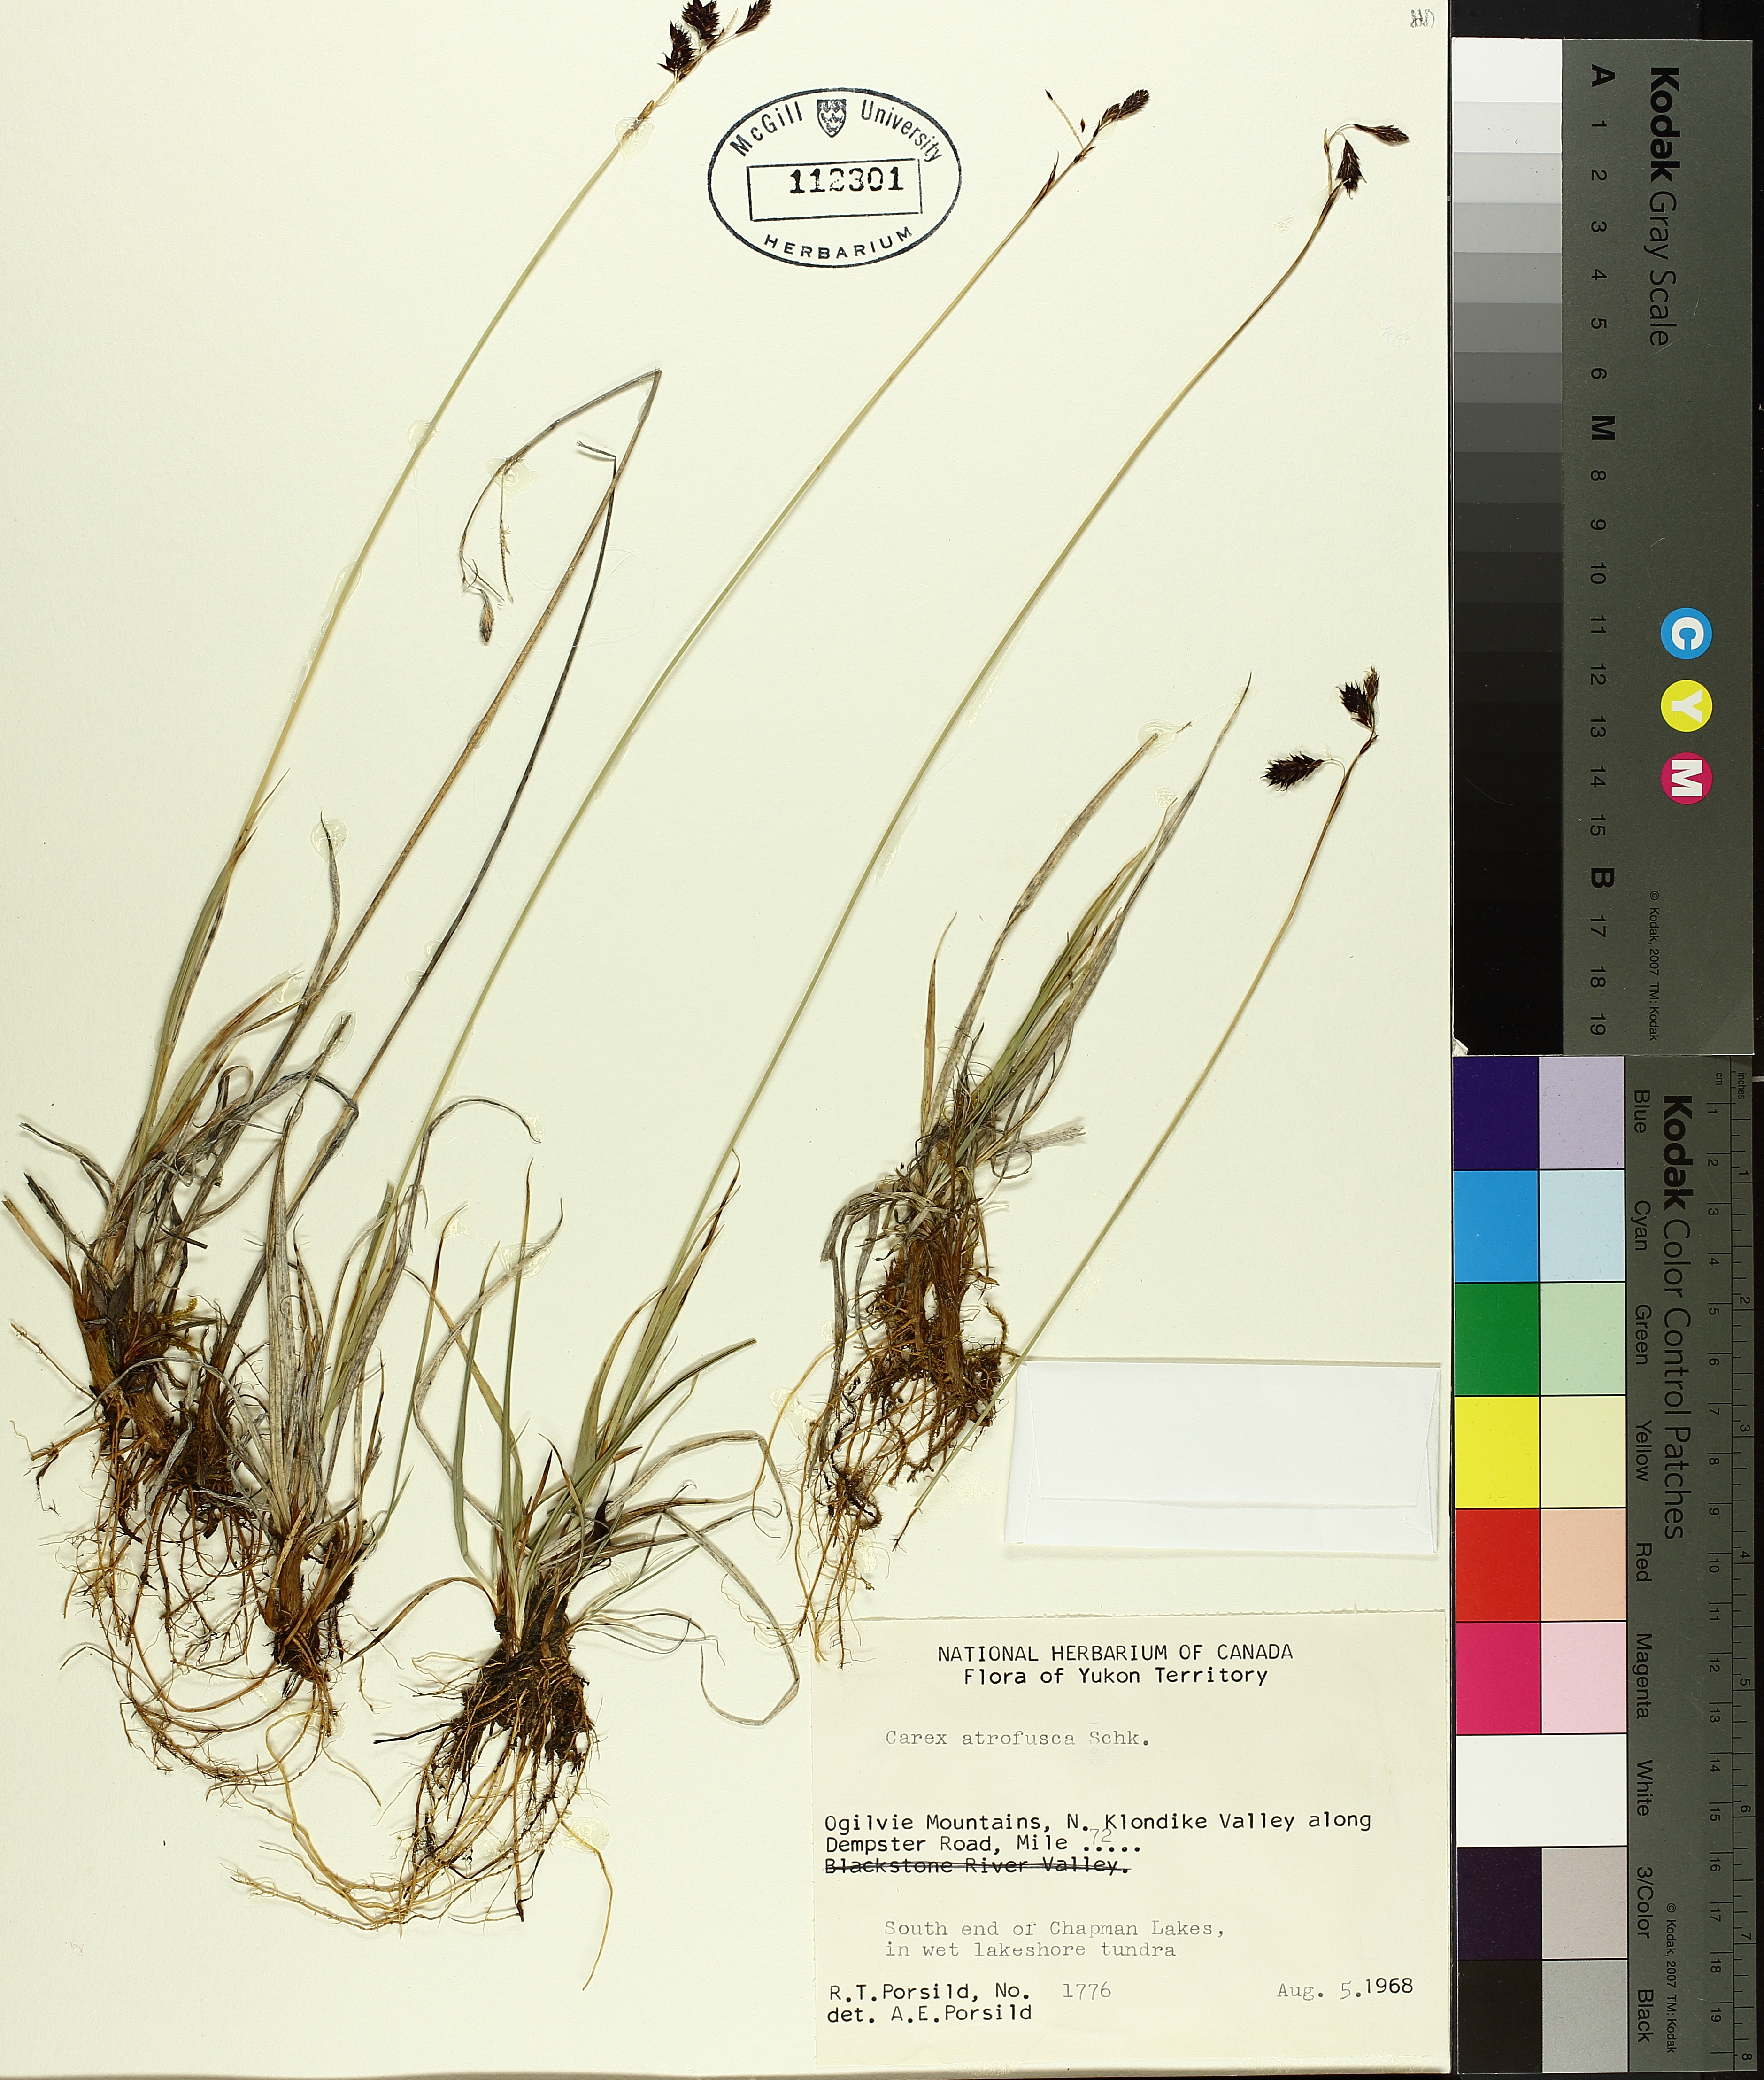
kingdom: Plantae
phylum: Tracheophyta
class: Liliopsida
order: Poales
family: Cyperaceae
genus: Carex
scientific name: Carex atrofusca
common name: Scorched alpine-sedge
